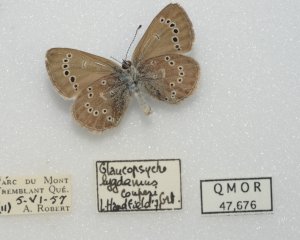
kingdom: Animalia
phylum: Arthropoda
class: Insecta
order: Lepidoptera
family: Lycaenidae
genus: Glaucopsyche
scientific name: Glaucopsyche lygdamus
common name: Silvery Blue
